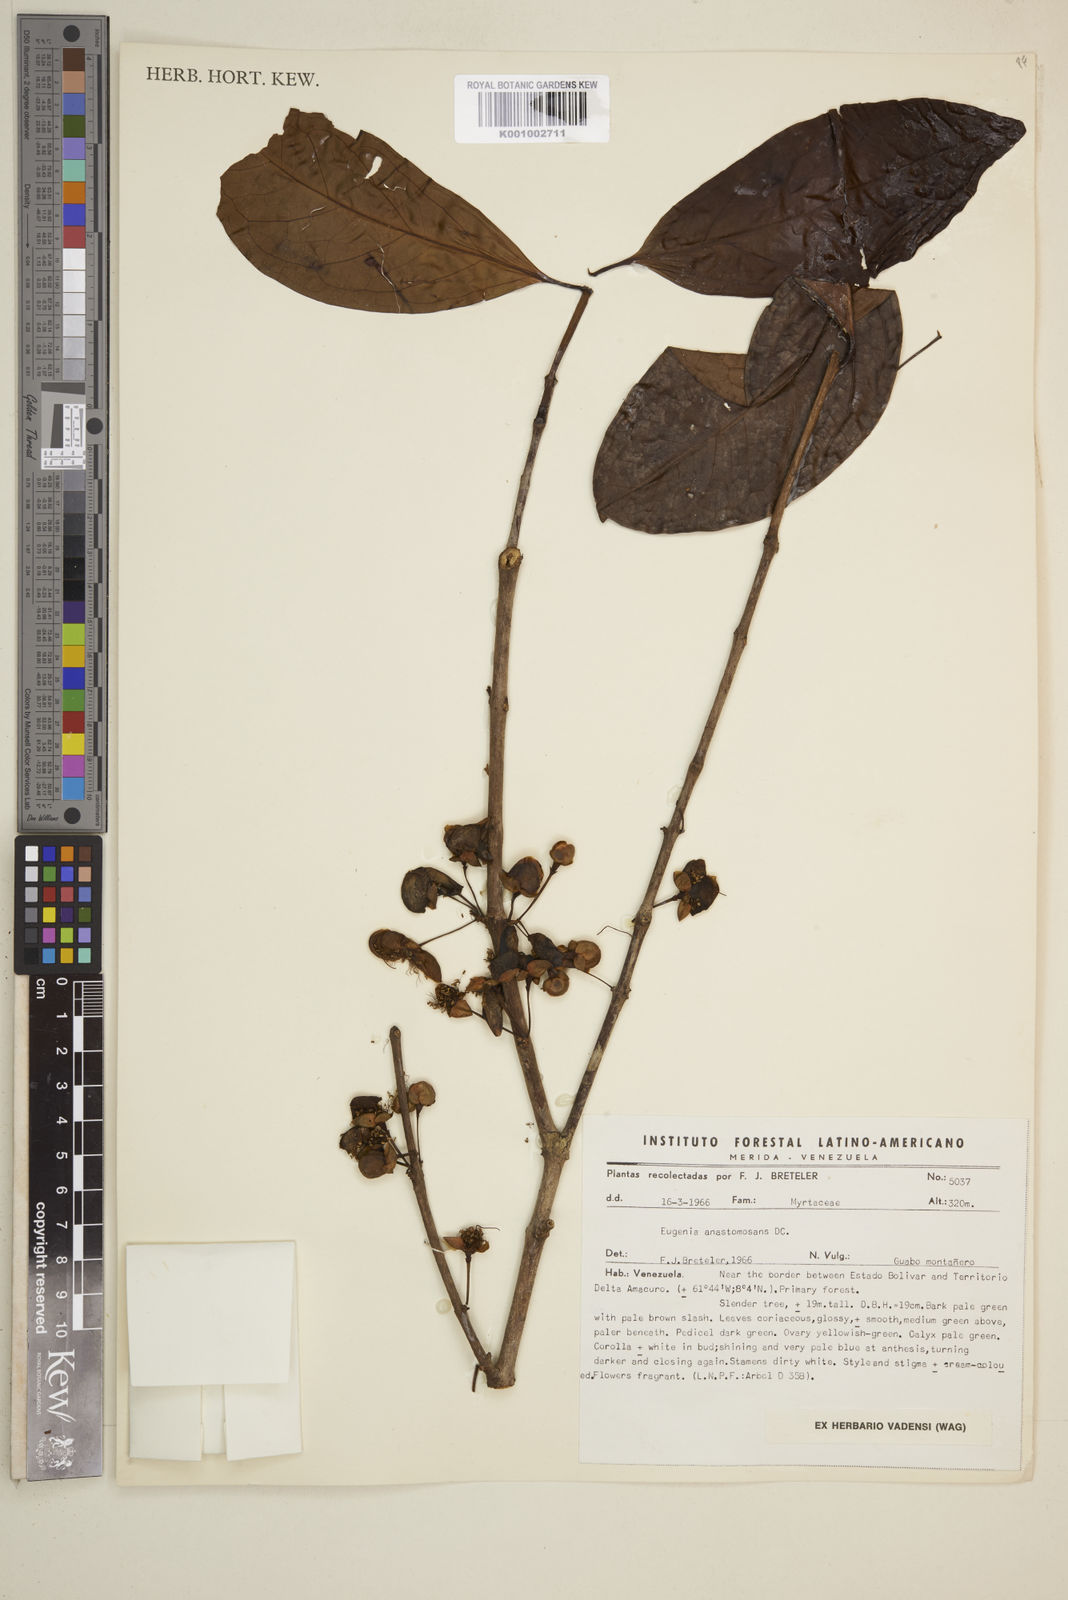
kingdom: Plantae
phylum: Tracheophyta
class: Magnoliopsida
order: Myrtales
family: Myrtaceae
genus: Eugenia
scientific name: Eugenia anastomosans
